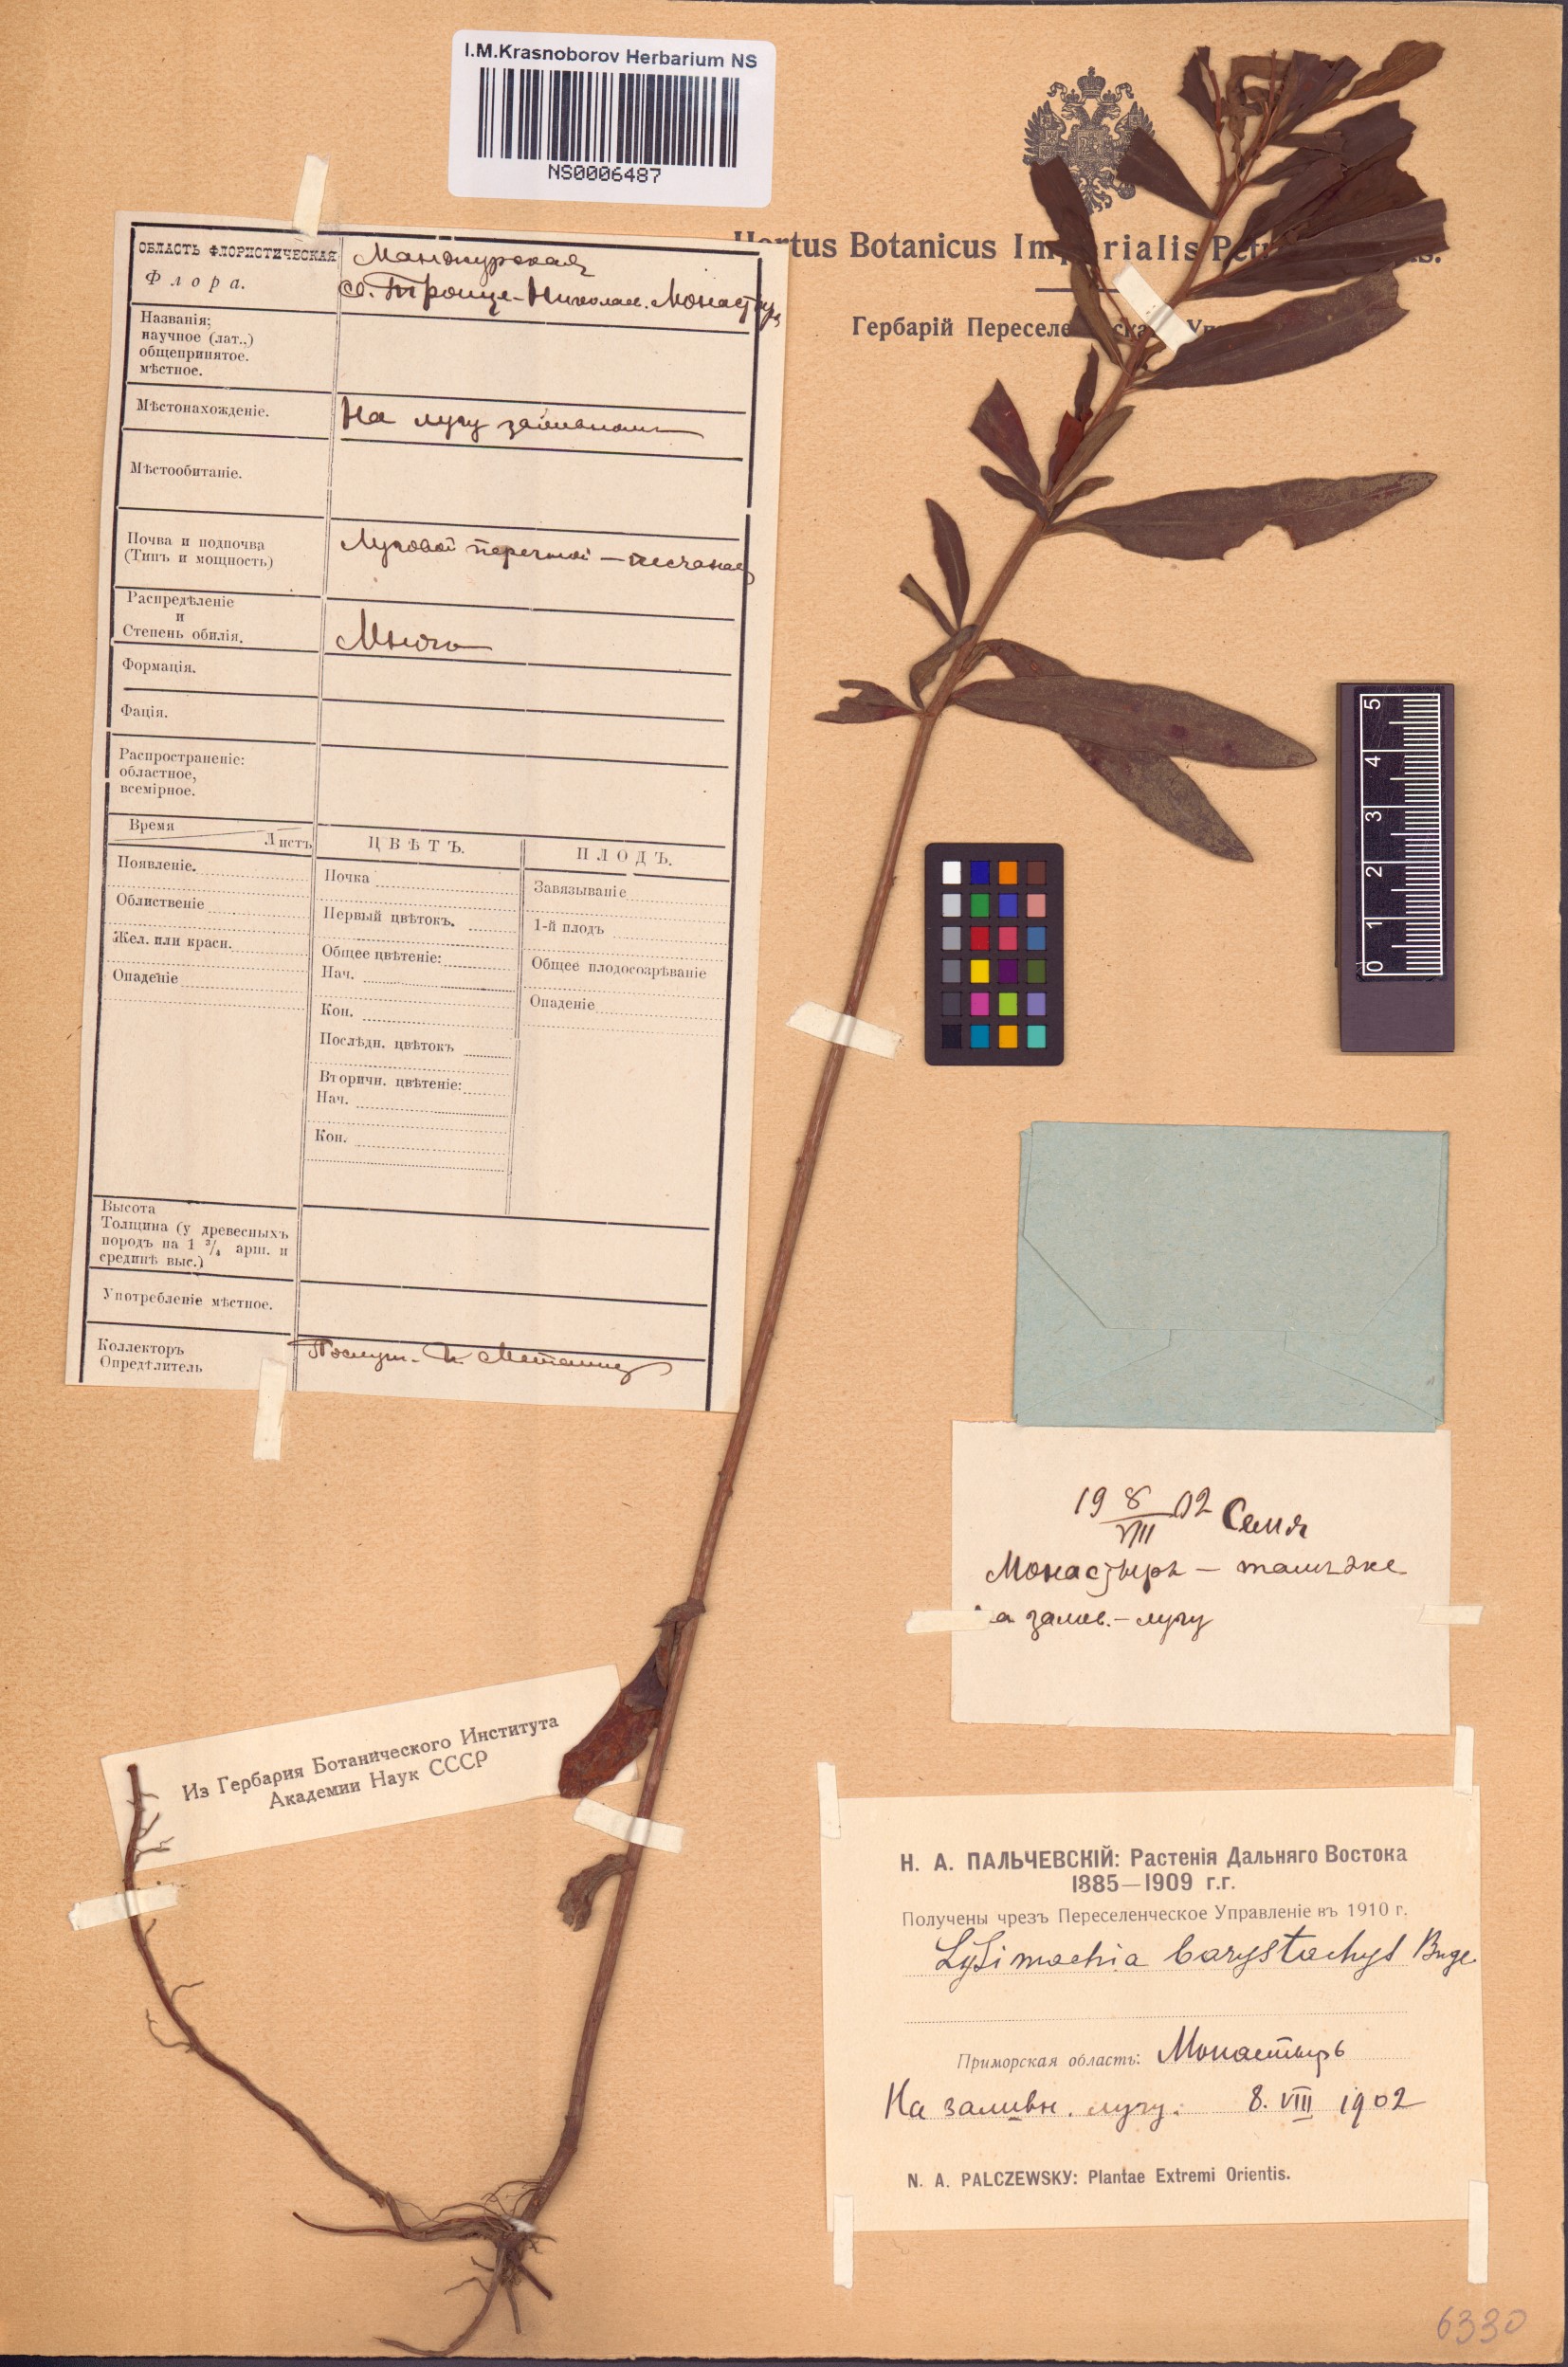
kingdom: Plantae
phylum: Tracheophyta
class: Magnoliopsida
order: Ericales
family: Primulaceae
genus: Lysimachia
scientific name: Lysimachia barystachys
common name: Manchurian yellow loosestrife
